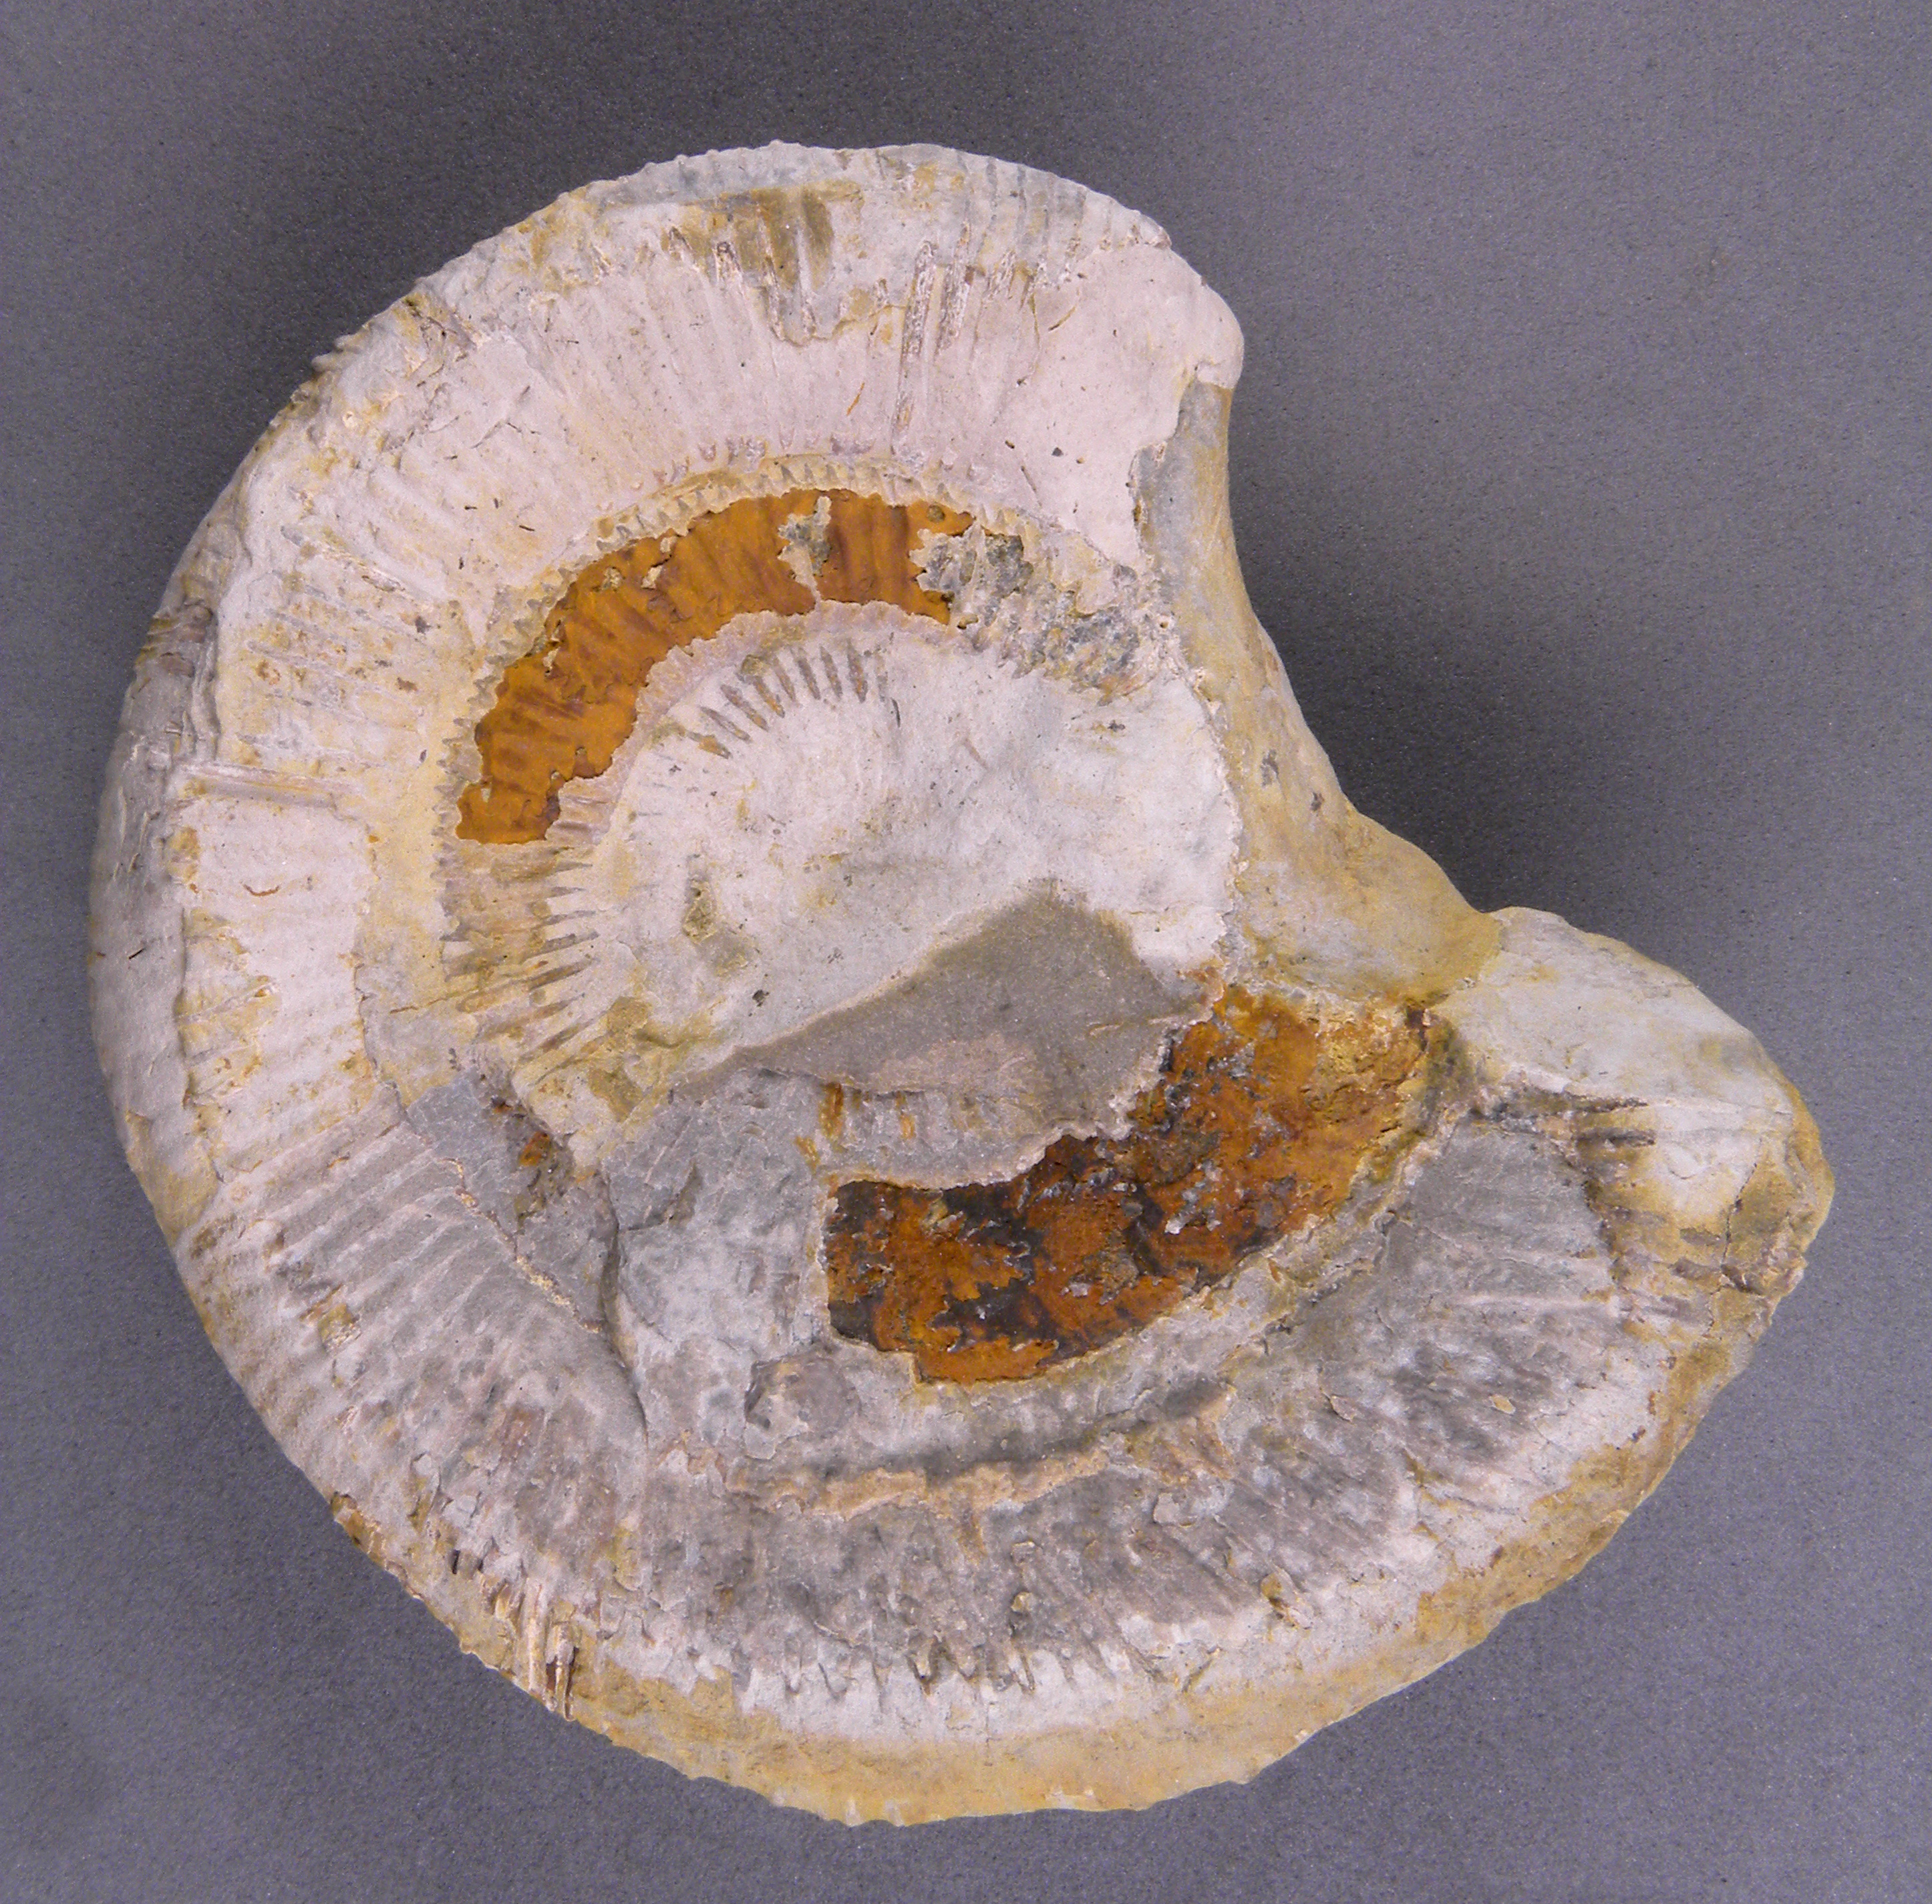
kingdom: Animalia
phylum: Mollusca
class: Cephalopoda
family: Dactylioceratidae
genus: Dactylioceras
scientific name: Dactylioceras
